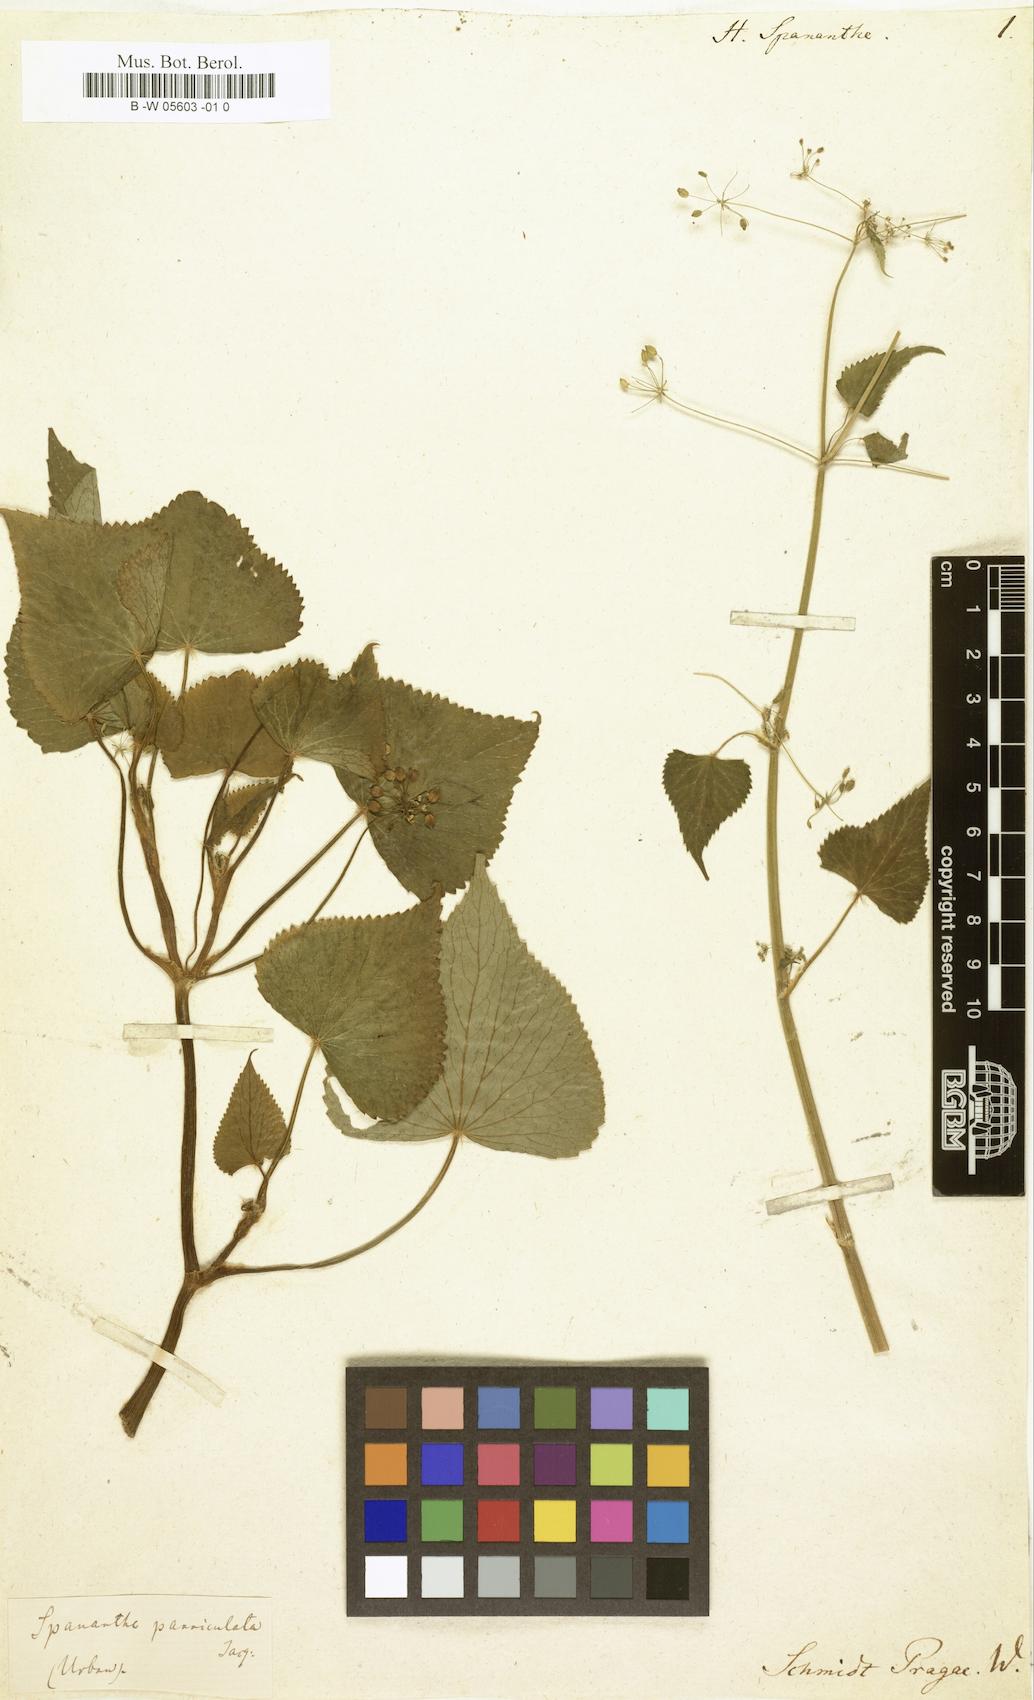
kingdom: Plantae
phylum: Tracheophyta
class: Magnoliopsida
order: Apiales
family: Apiaceae
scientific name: Apiaceae
